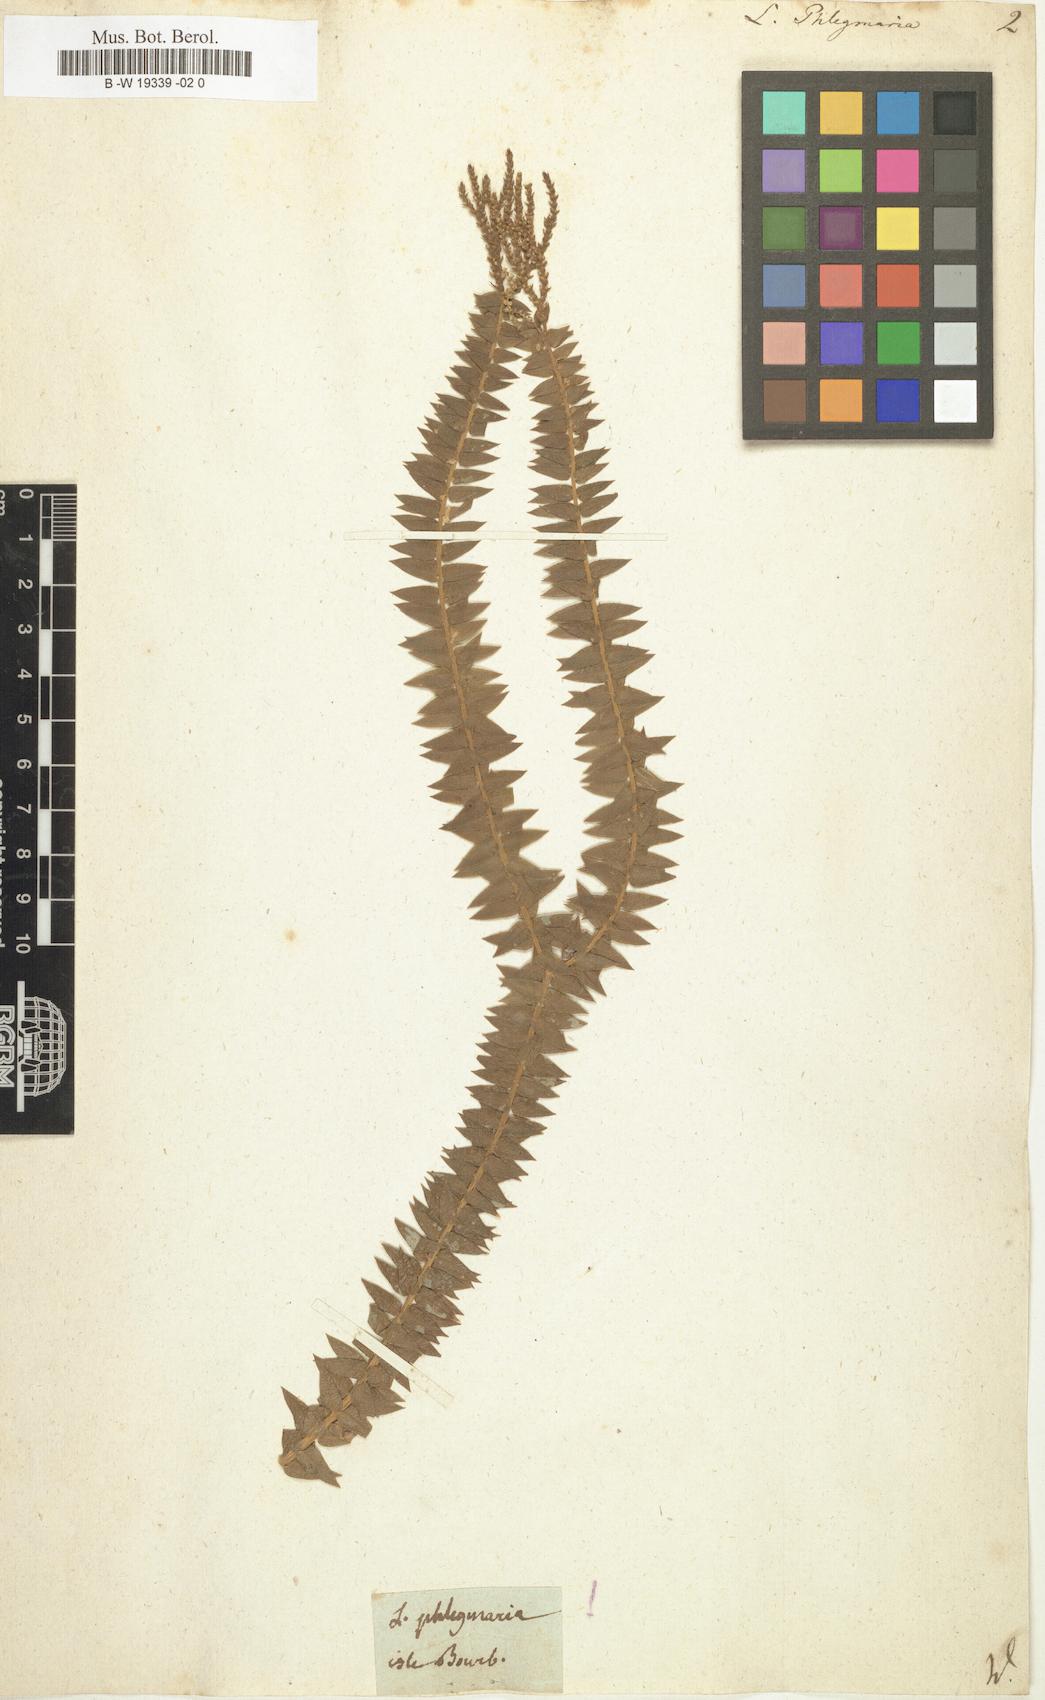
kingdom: Plantae
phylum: Tracheophyta
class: Lycopodiopsida
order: Lycopodiales
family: Lycopodiaceae
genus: Phlegmariurus
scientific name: Phlegmariurus
